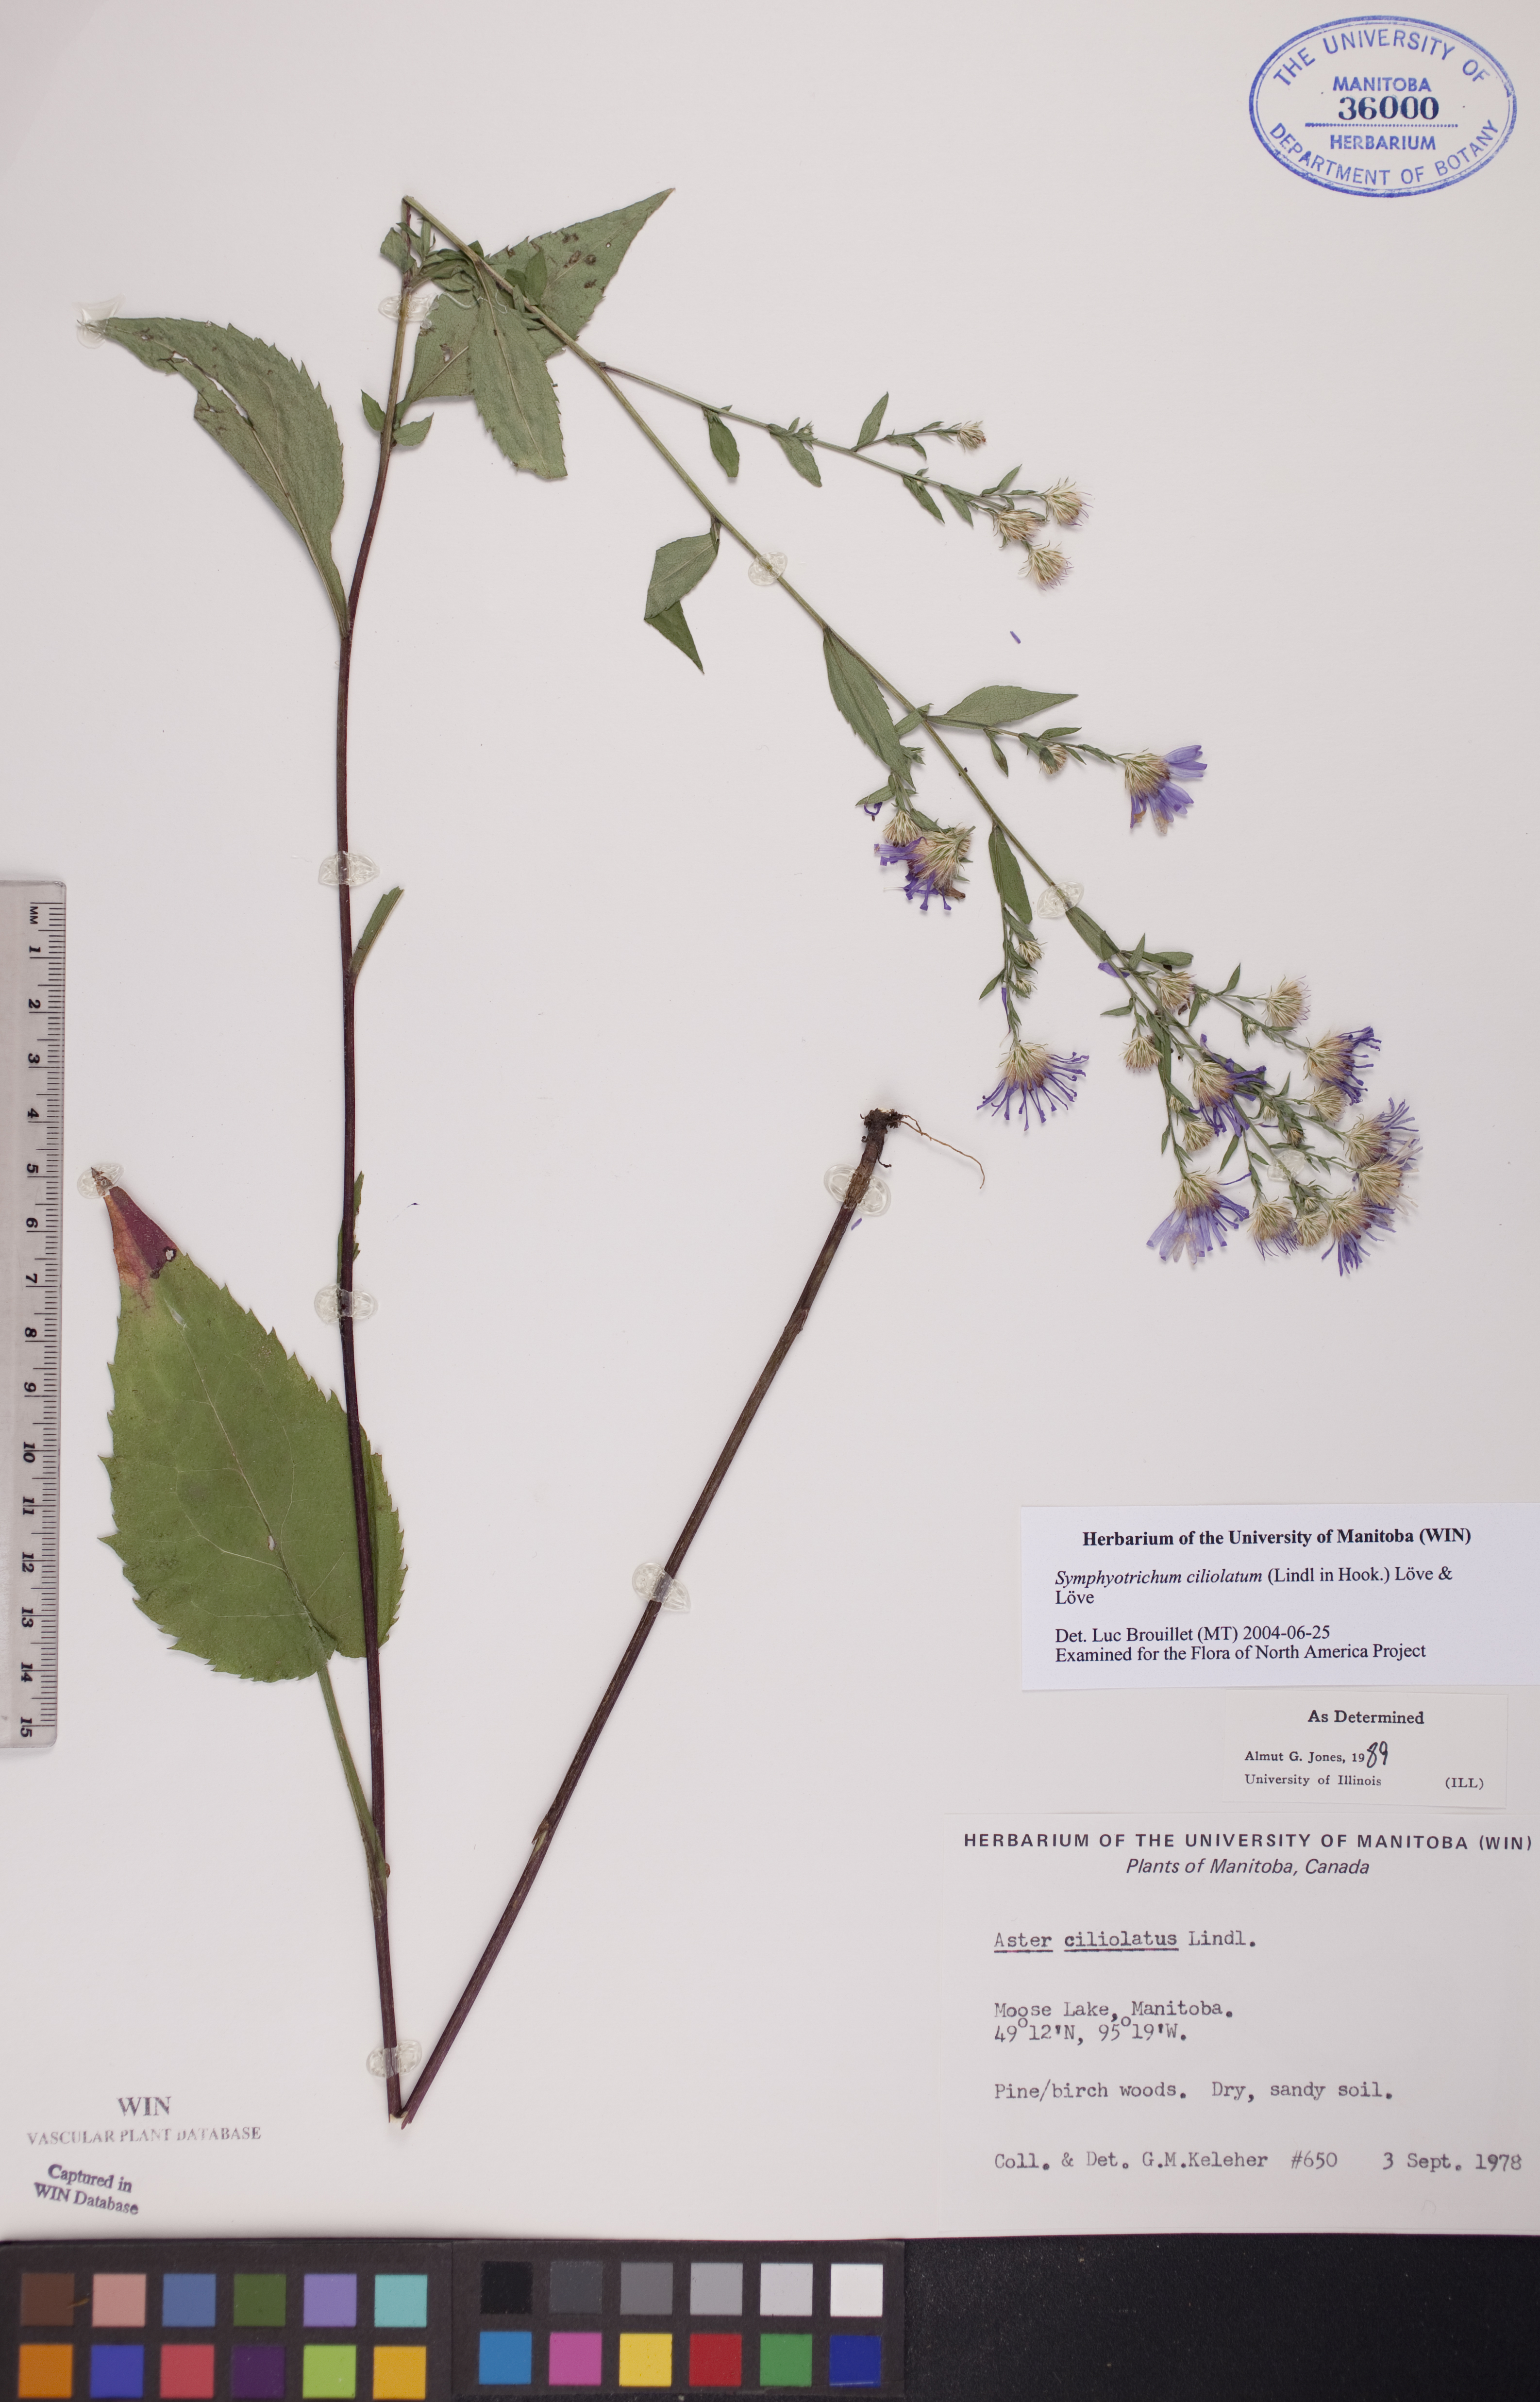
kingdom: Plantae
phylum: Tracheophyta
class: Magnoliopsida
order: Asterales
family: Asteraceae
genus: Symphyotrichum
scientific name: Symphyotrichum ciliolatum
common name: Fringed blue aster
